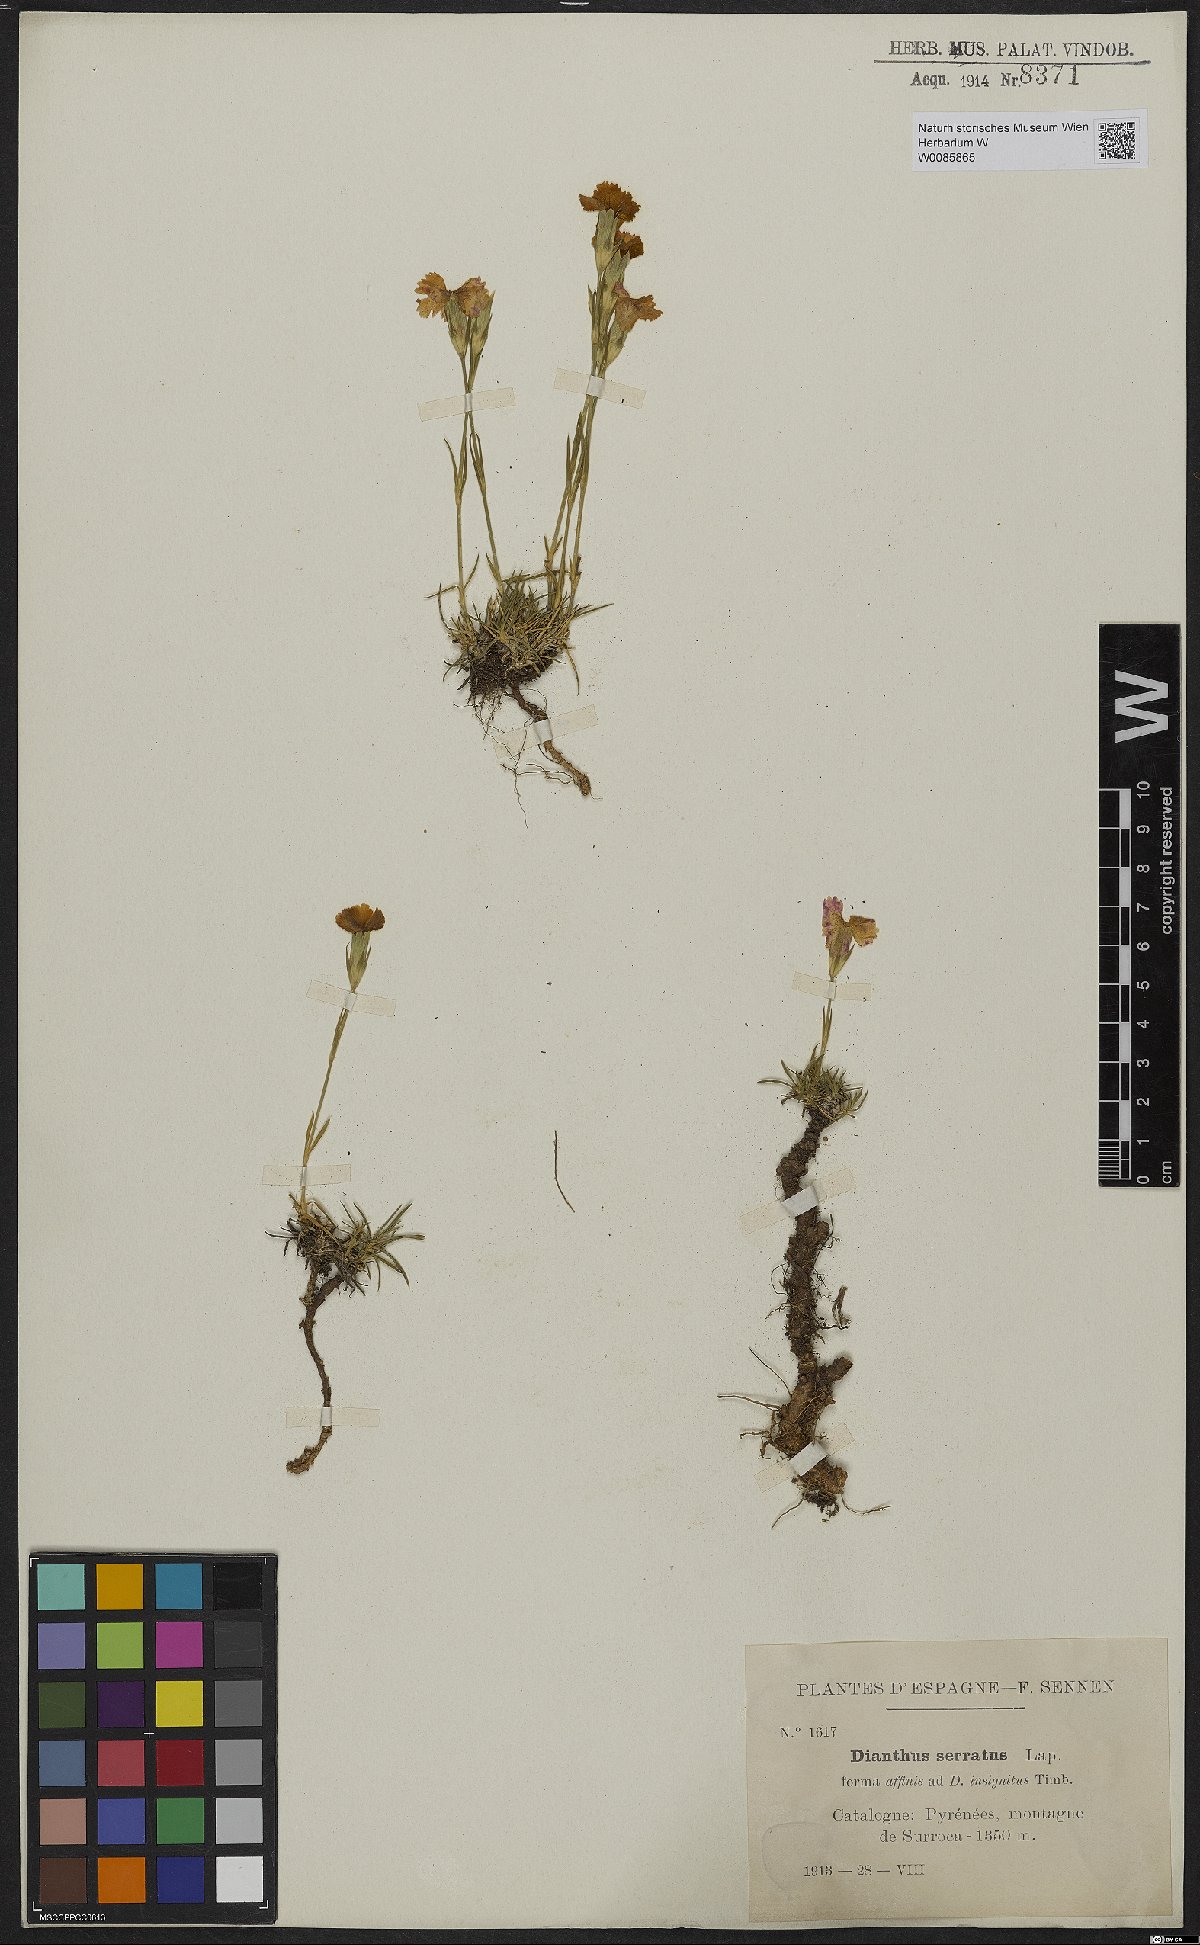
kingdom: Plantae
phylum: Tracheophyta
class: Magnoliopsida
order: Caryophyllales
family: Caryophyllaceae
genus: Dianthus
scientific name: Dianthus pungens
